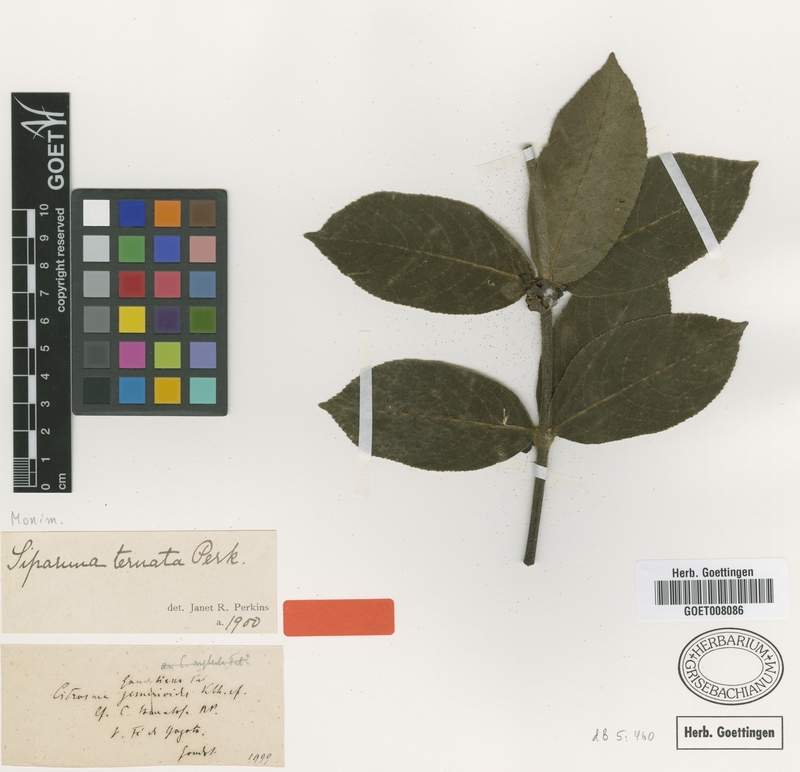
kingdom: Plantae
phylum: Tracheophyta
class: Magnoliopsida
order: Laurales
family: Siparunaceae
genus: Siparuna
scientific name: Siparuna thecaphora
